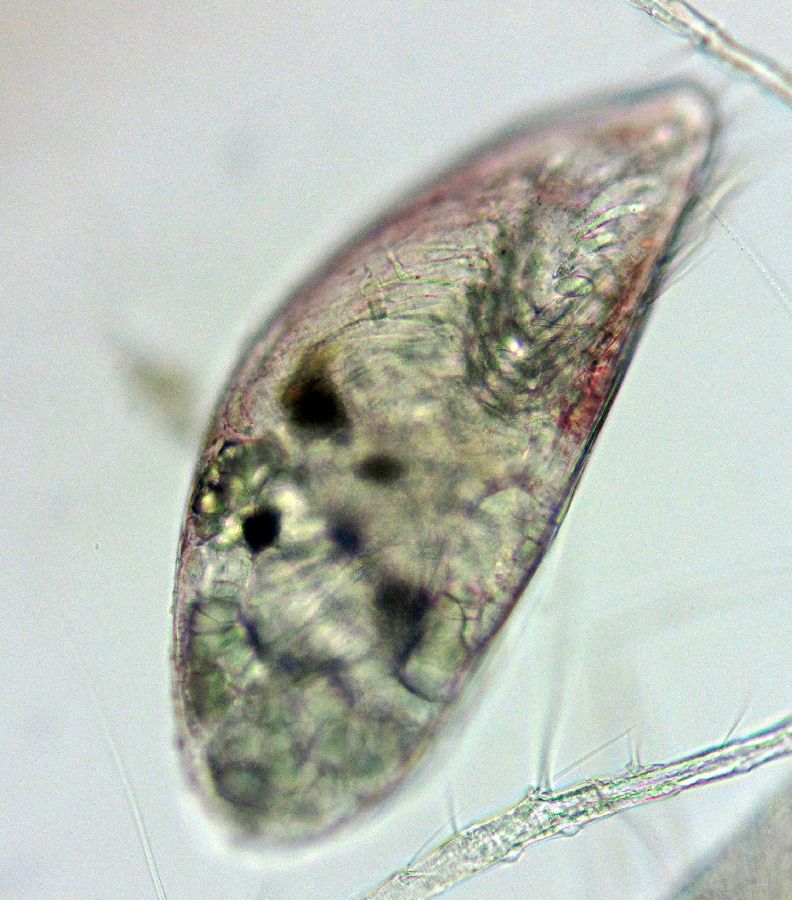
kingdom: Animalia
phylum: Arthropoda
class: Maxillopoda
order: Sessilia
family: Archaeobalanidae
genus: Semibalanus
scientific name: Semibalanus balanoides
